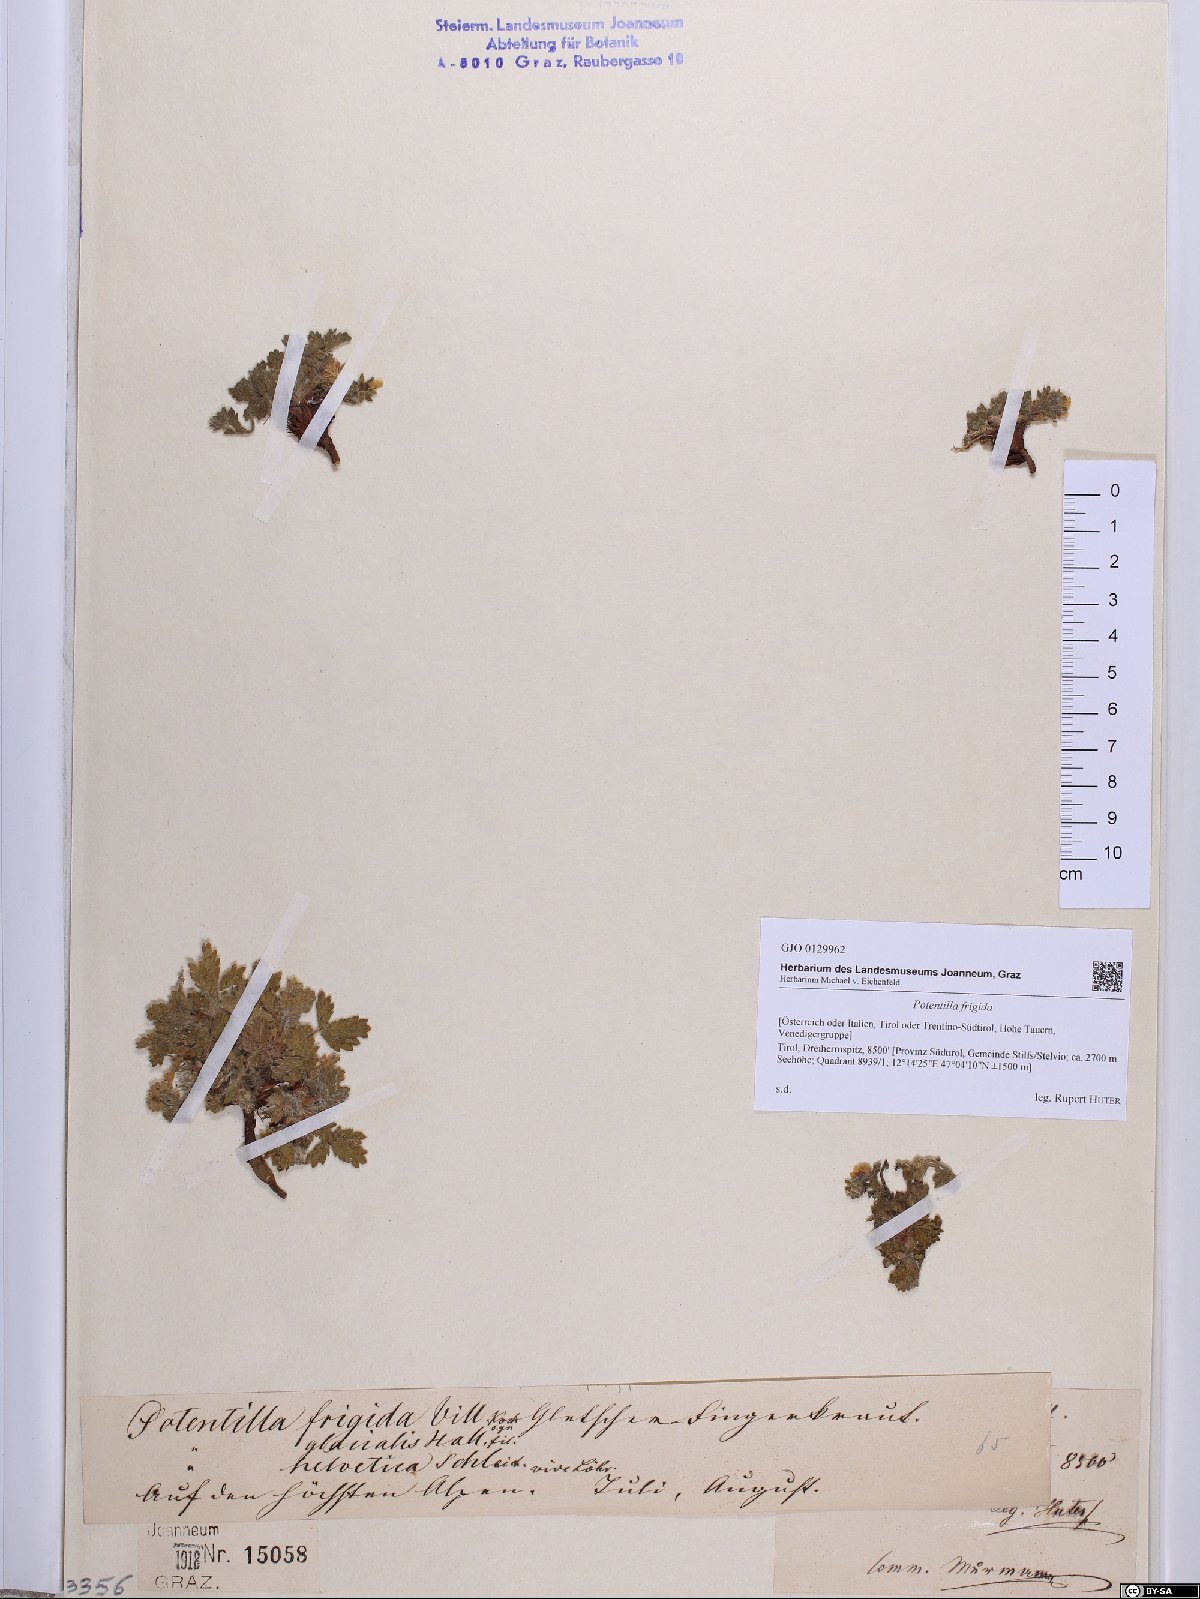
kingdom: Plantae
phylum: Tracheophyta
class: Magnoliopsida
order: Rosales
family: Rosaceae
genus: Potentilla
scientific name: Potentilla frigida
